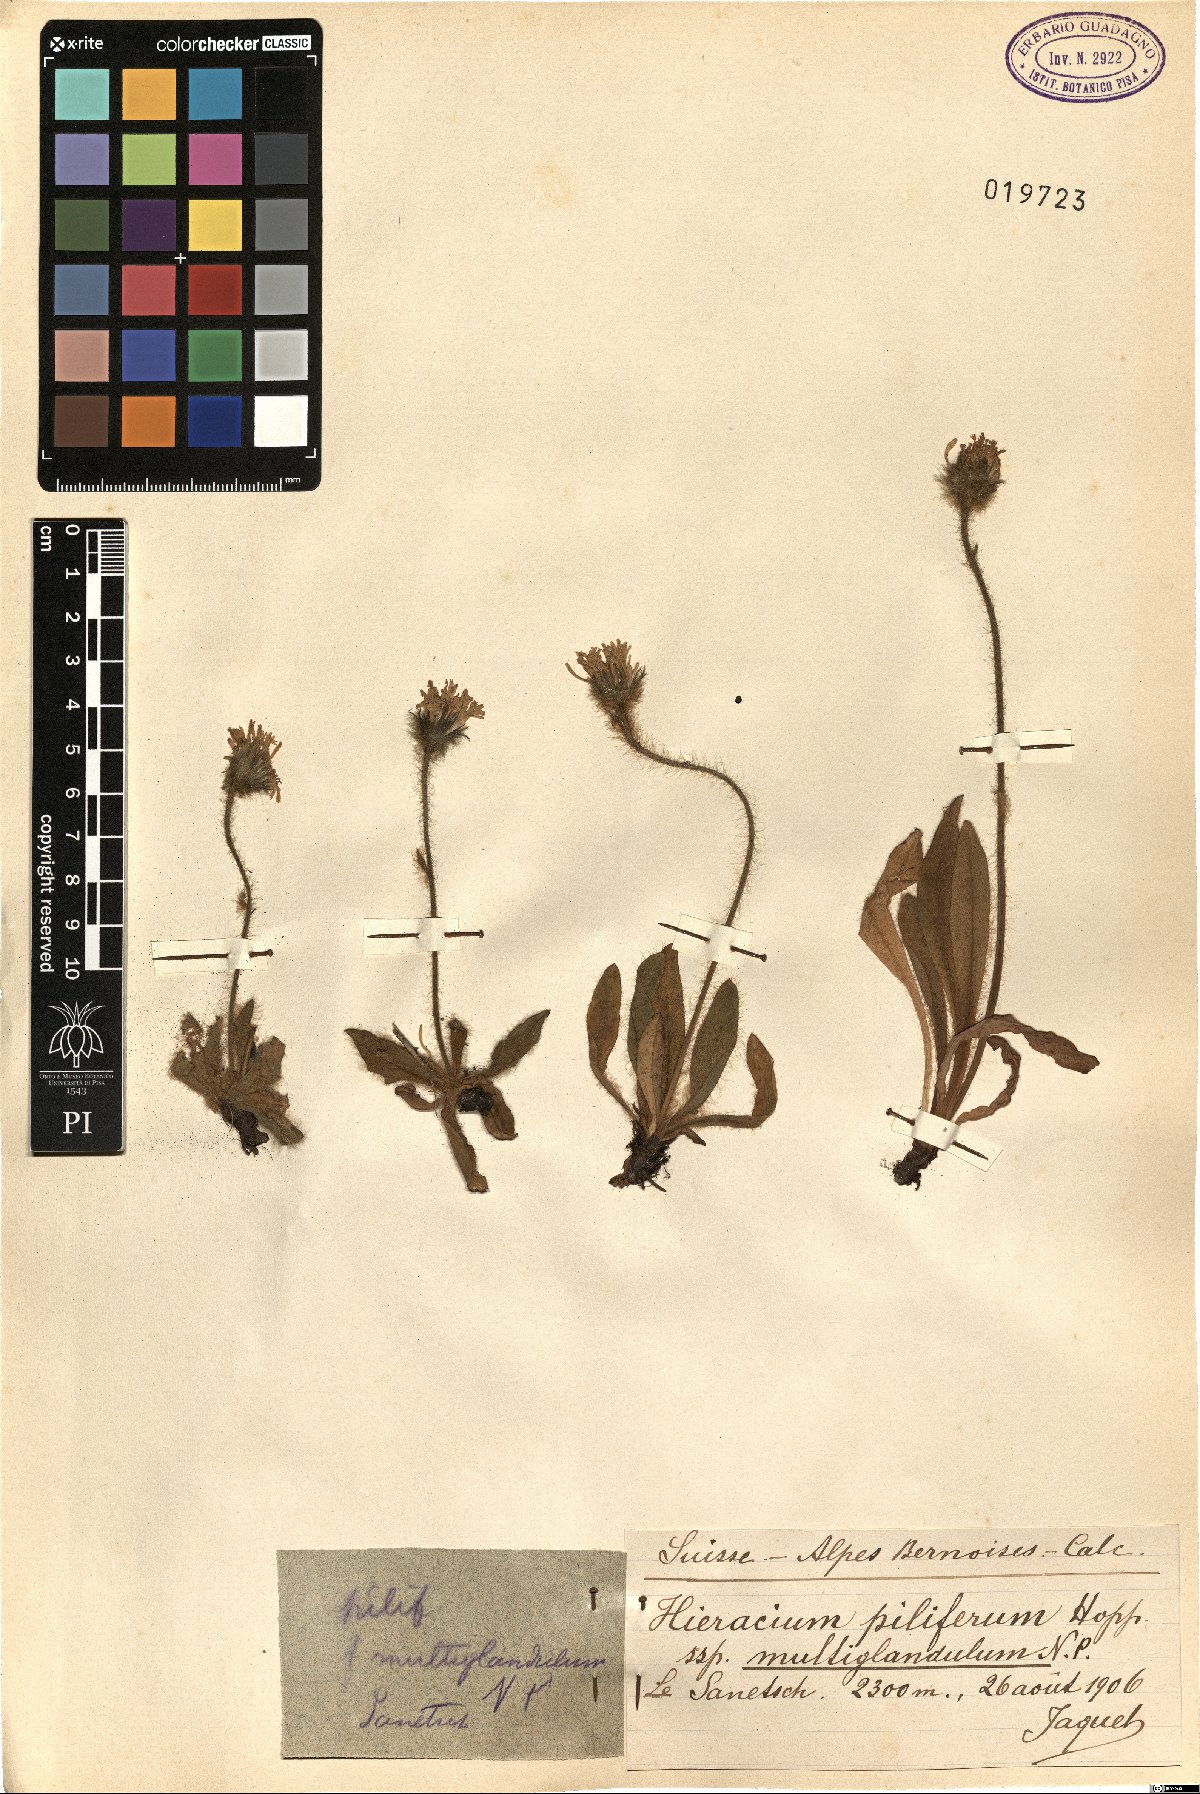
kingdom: Plantae
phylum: Tracheophyta
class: Magnoliopsida
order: Asterales
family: Asteraceae
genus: Hieracium
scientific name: Hieracium piliferum
